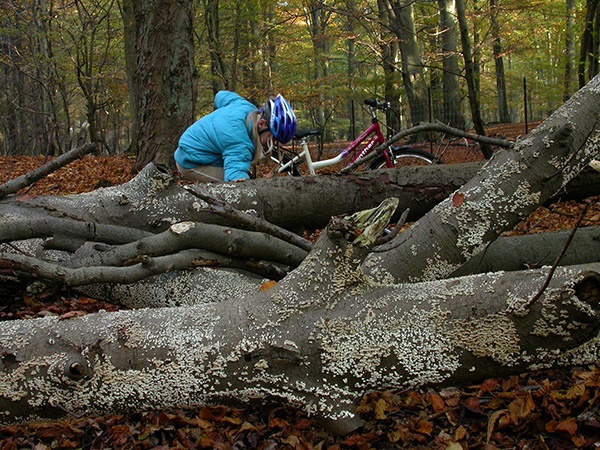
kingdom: Fungi
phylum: Basidiomycota
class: Agaricomycetes
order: Amylocorticiales
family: Amylocorticiaceae
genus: Plicaturopsis
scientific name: Plicaturopsis crispa
